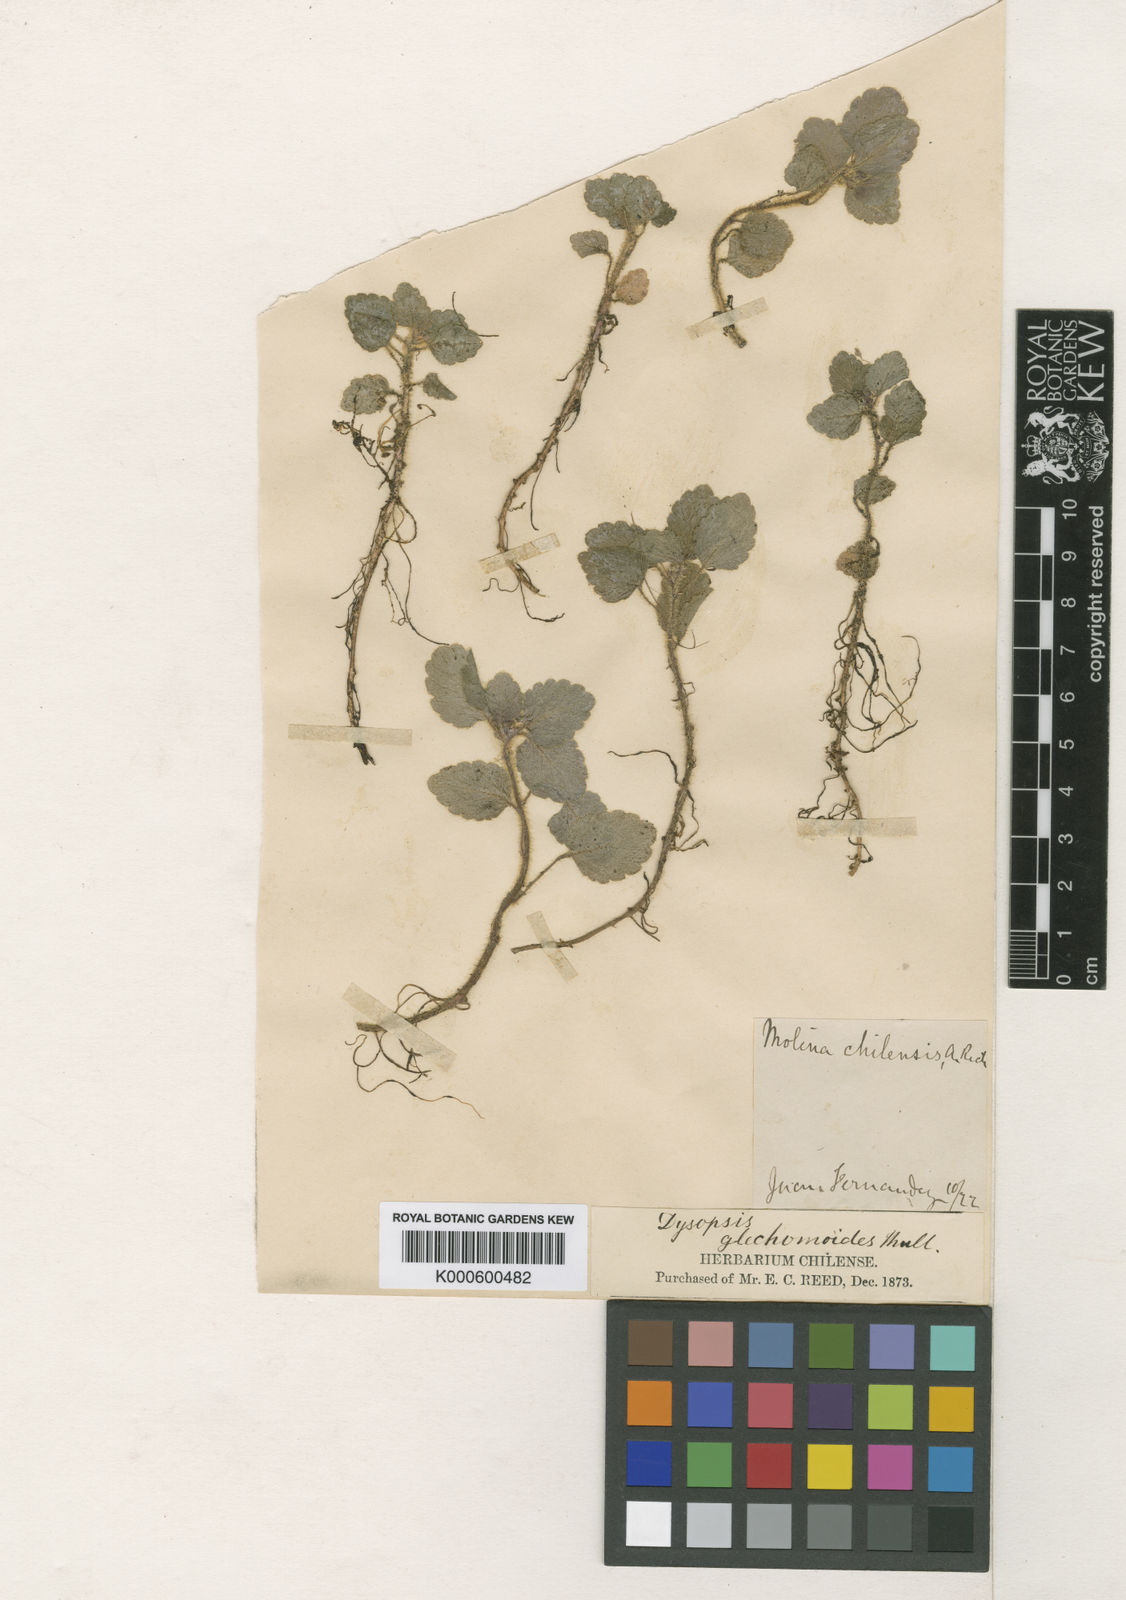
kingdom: Plantae
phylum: Tracheophyta
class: Magnoliopsida
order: Malpighiales
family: Euphorbiaceae
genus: Dysopsis
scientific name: Dysopsis
